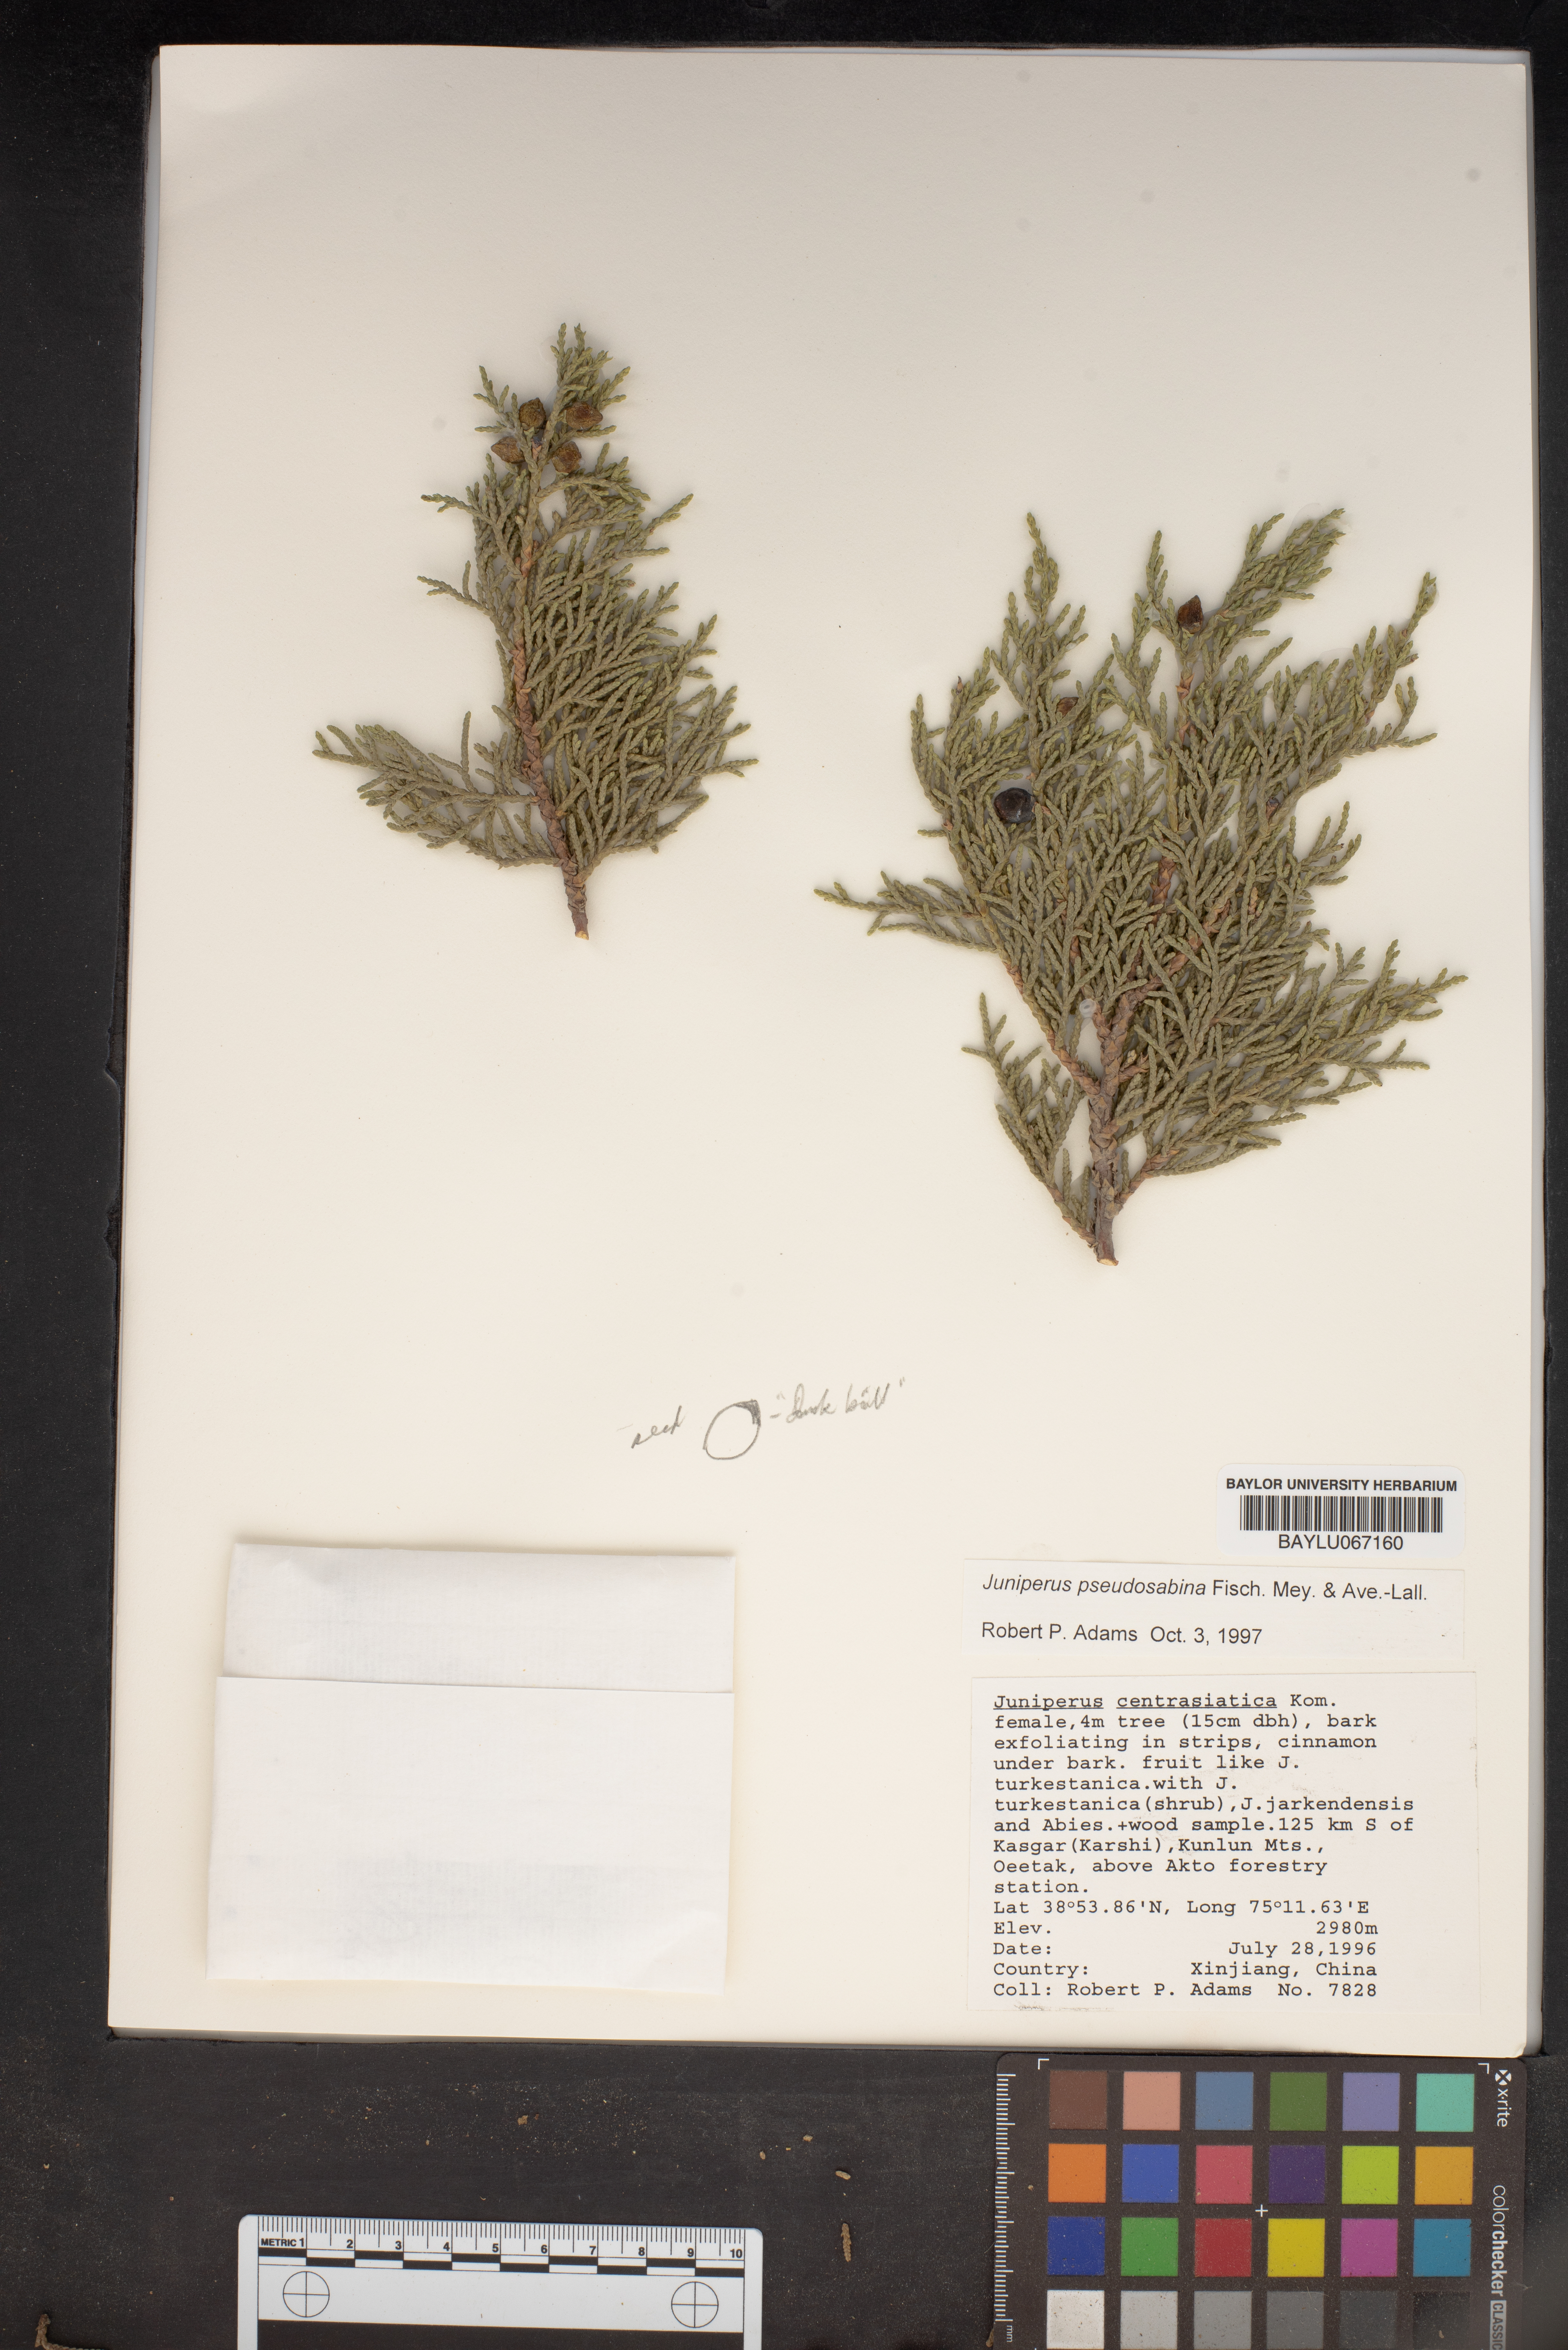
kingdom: Plantae
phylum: Tracheophyta
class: Pinopsida
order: Pinales
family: Cupressaceae
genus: Juniperus
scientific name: Juniperus pseudosabina
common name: Turkestan juniper
